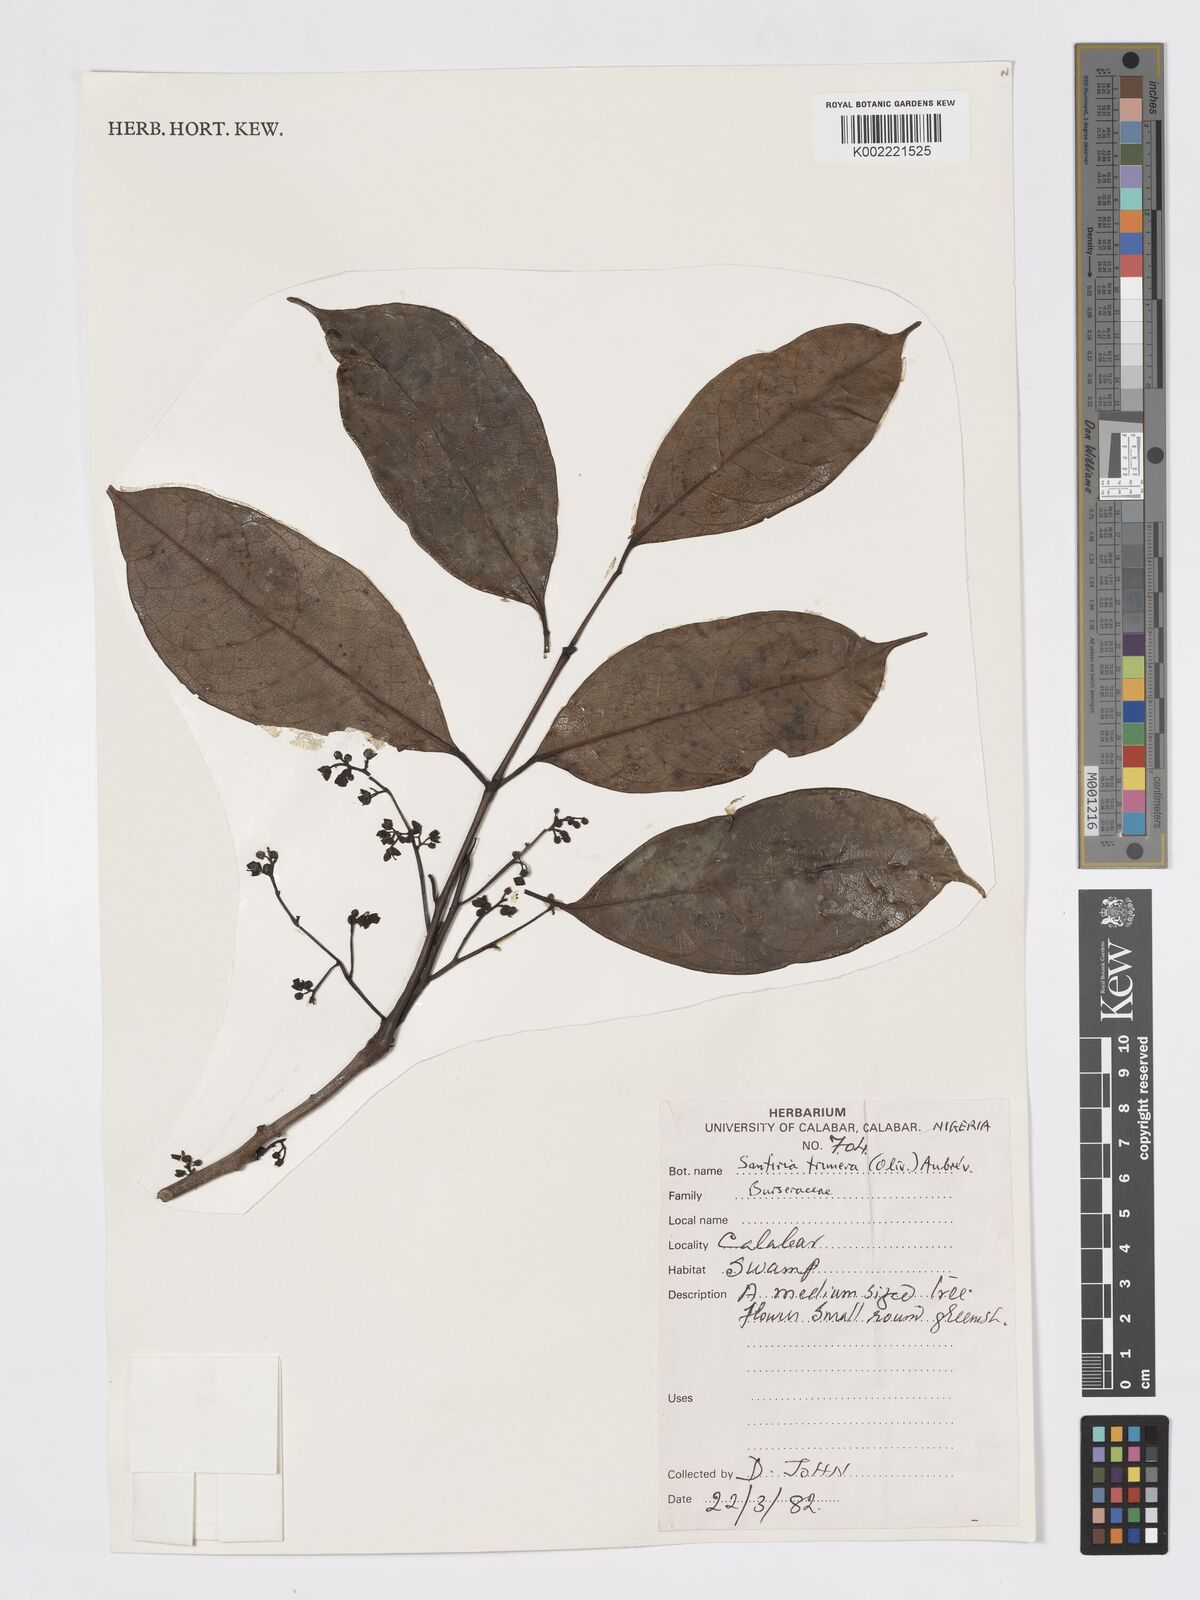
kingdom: Plantae
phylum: Tracheophyta
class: Magnoliopsida
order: Sapindales
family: Burseraceae
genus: Pachylobus
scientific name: Pachylobus trimerus
